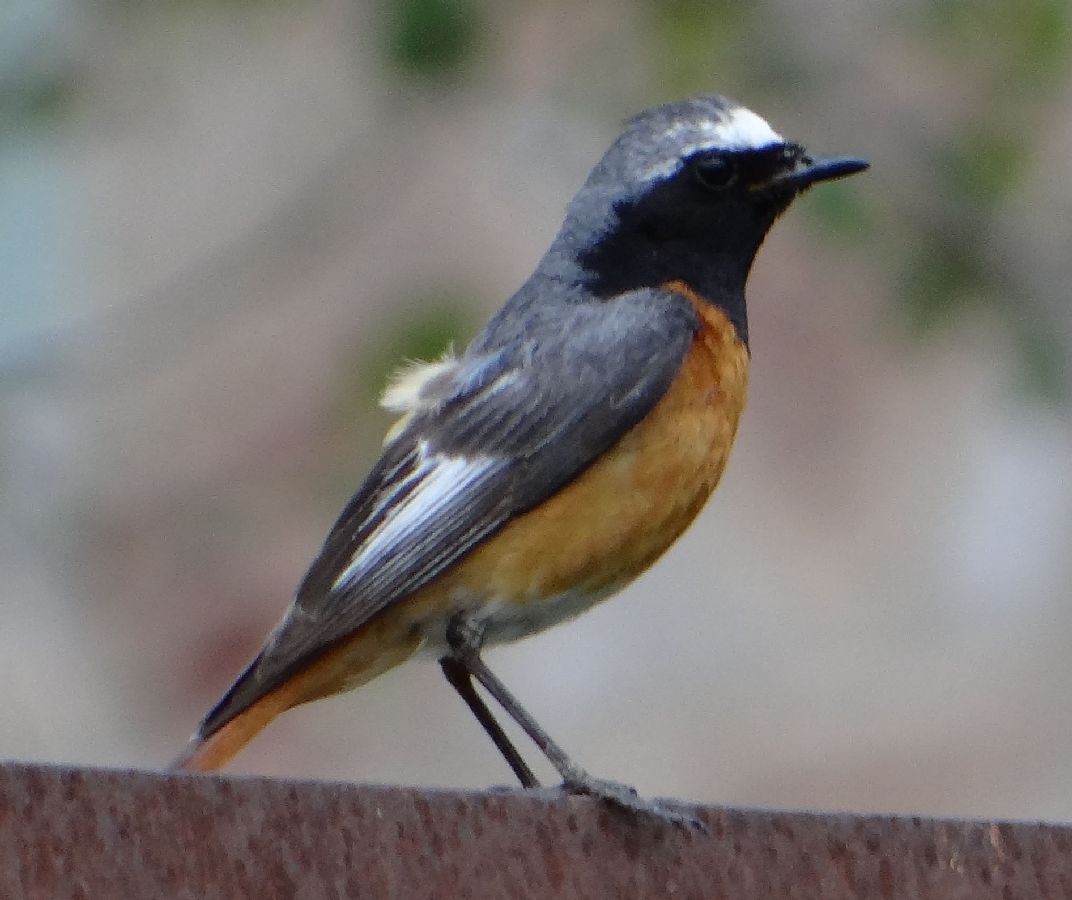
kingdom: Animalia
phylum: Chordata
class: Aves
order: Passeriformes
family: Muscicapidae
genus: Phoenicurus
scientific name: Phoenicurus phoenicurus
